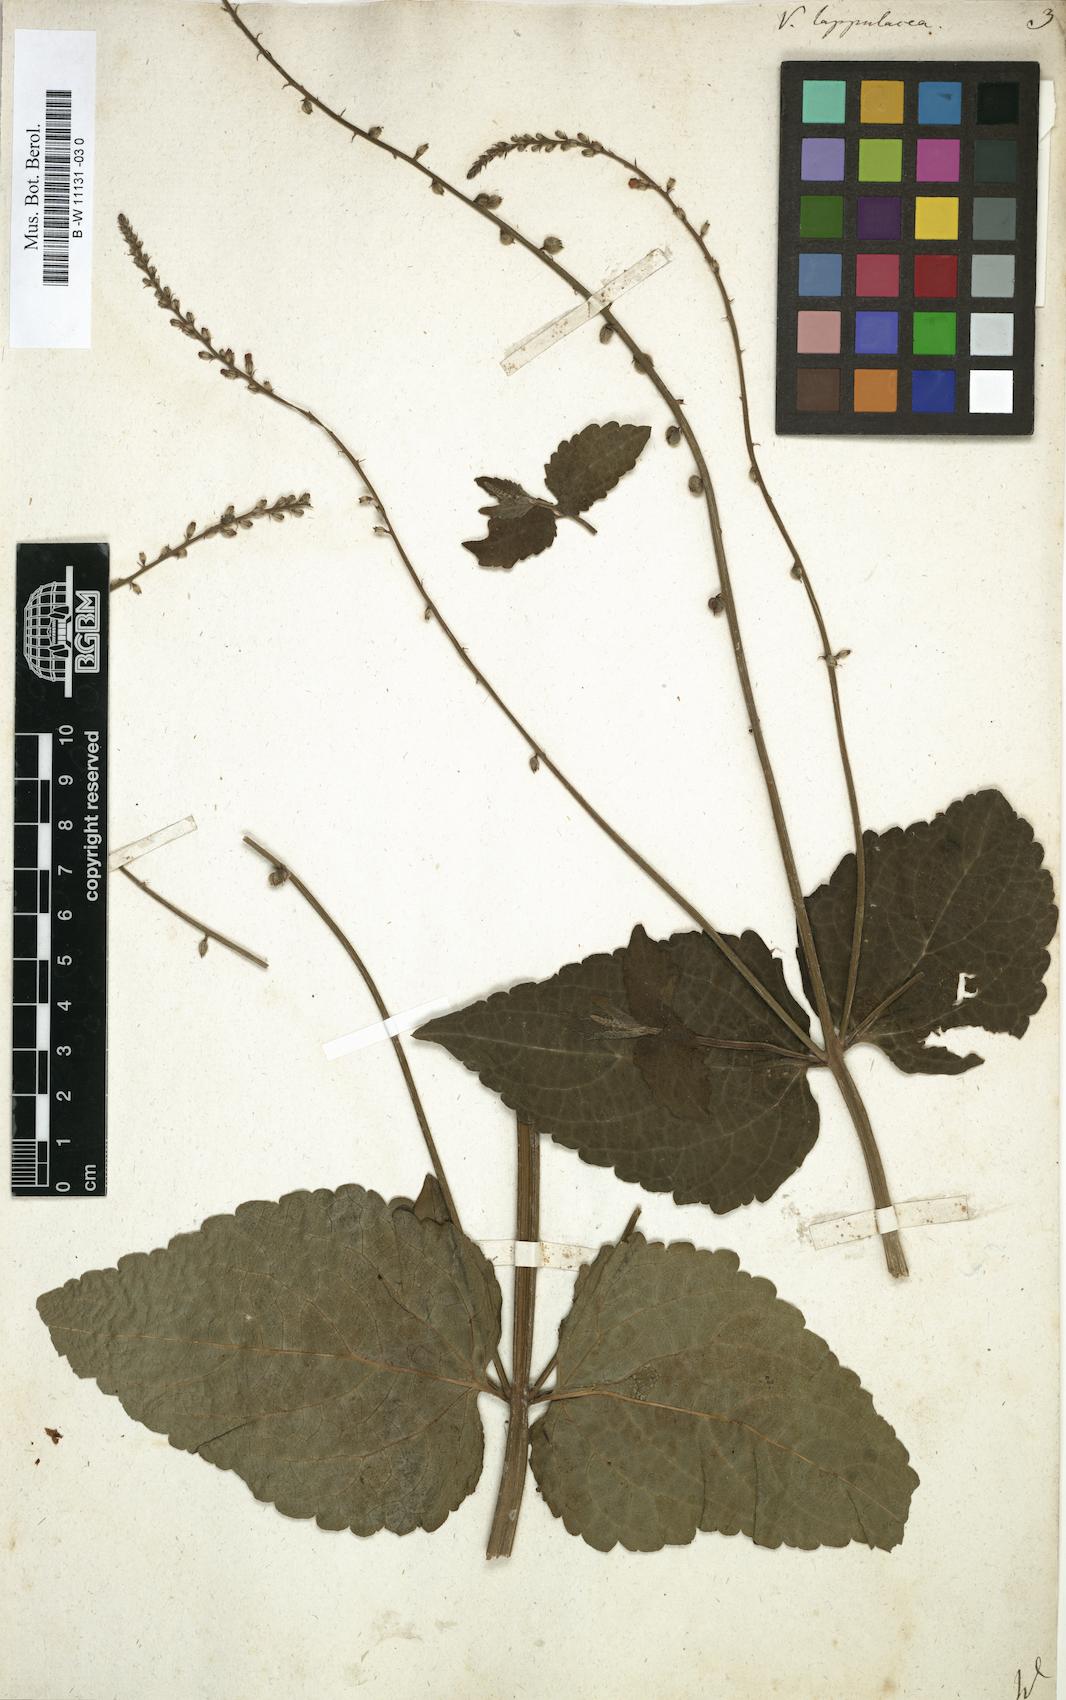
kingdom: Plantae
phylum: Tracheophyta
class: Magnoliopsida
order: Lamiales
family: Verbenaceae
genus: Priva
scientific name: Priva lappulacea
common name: Fasten-'pon-coat
